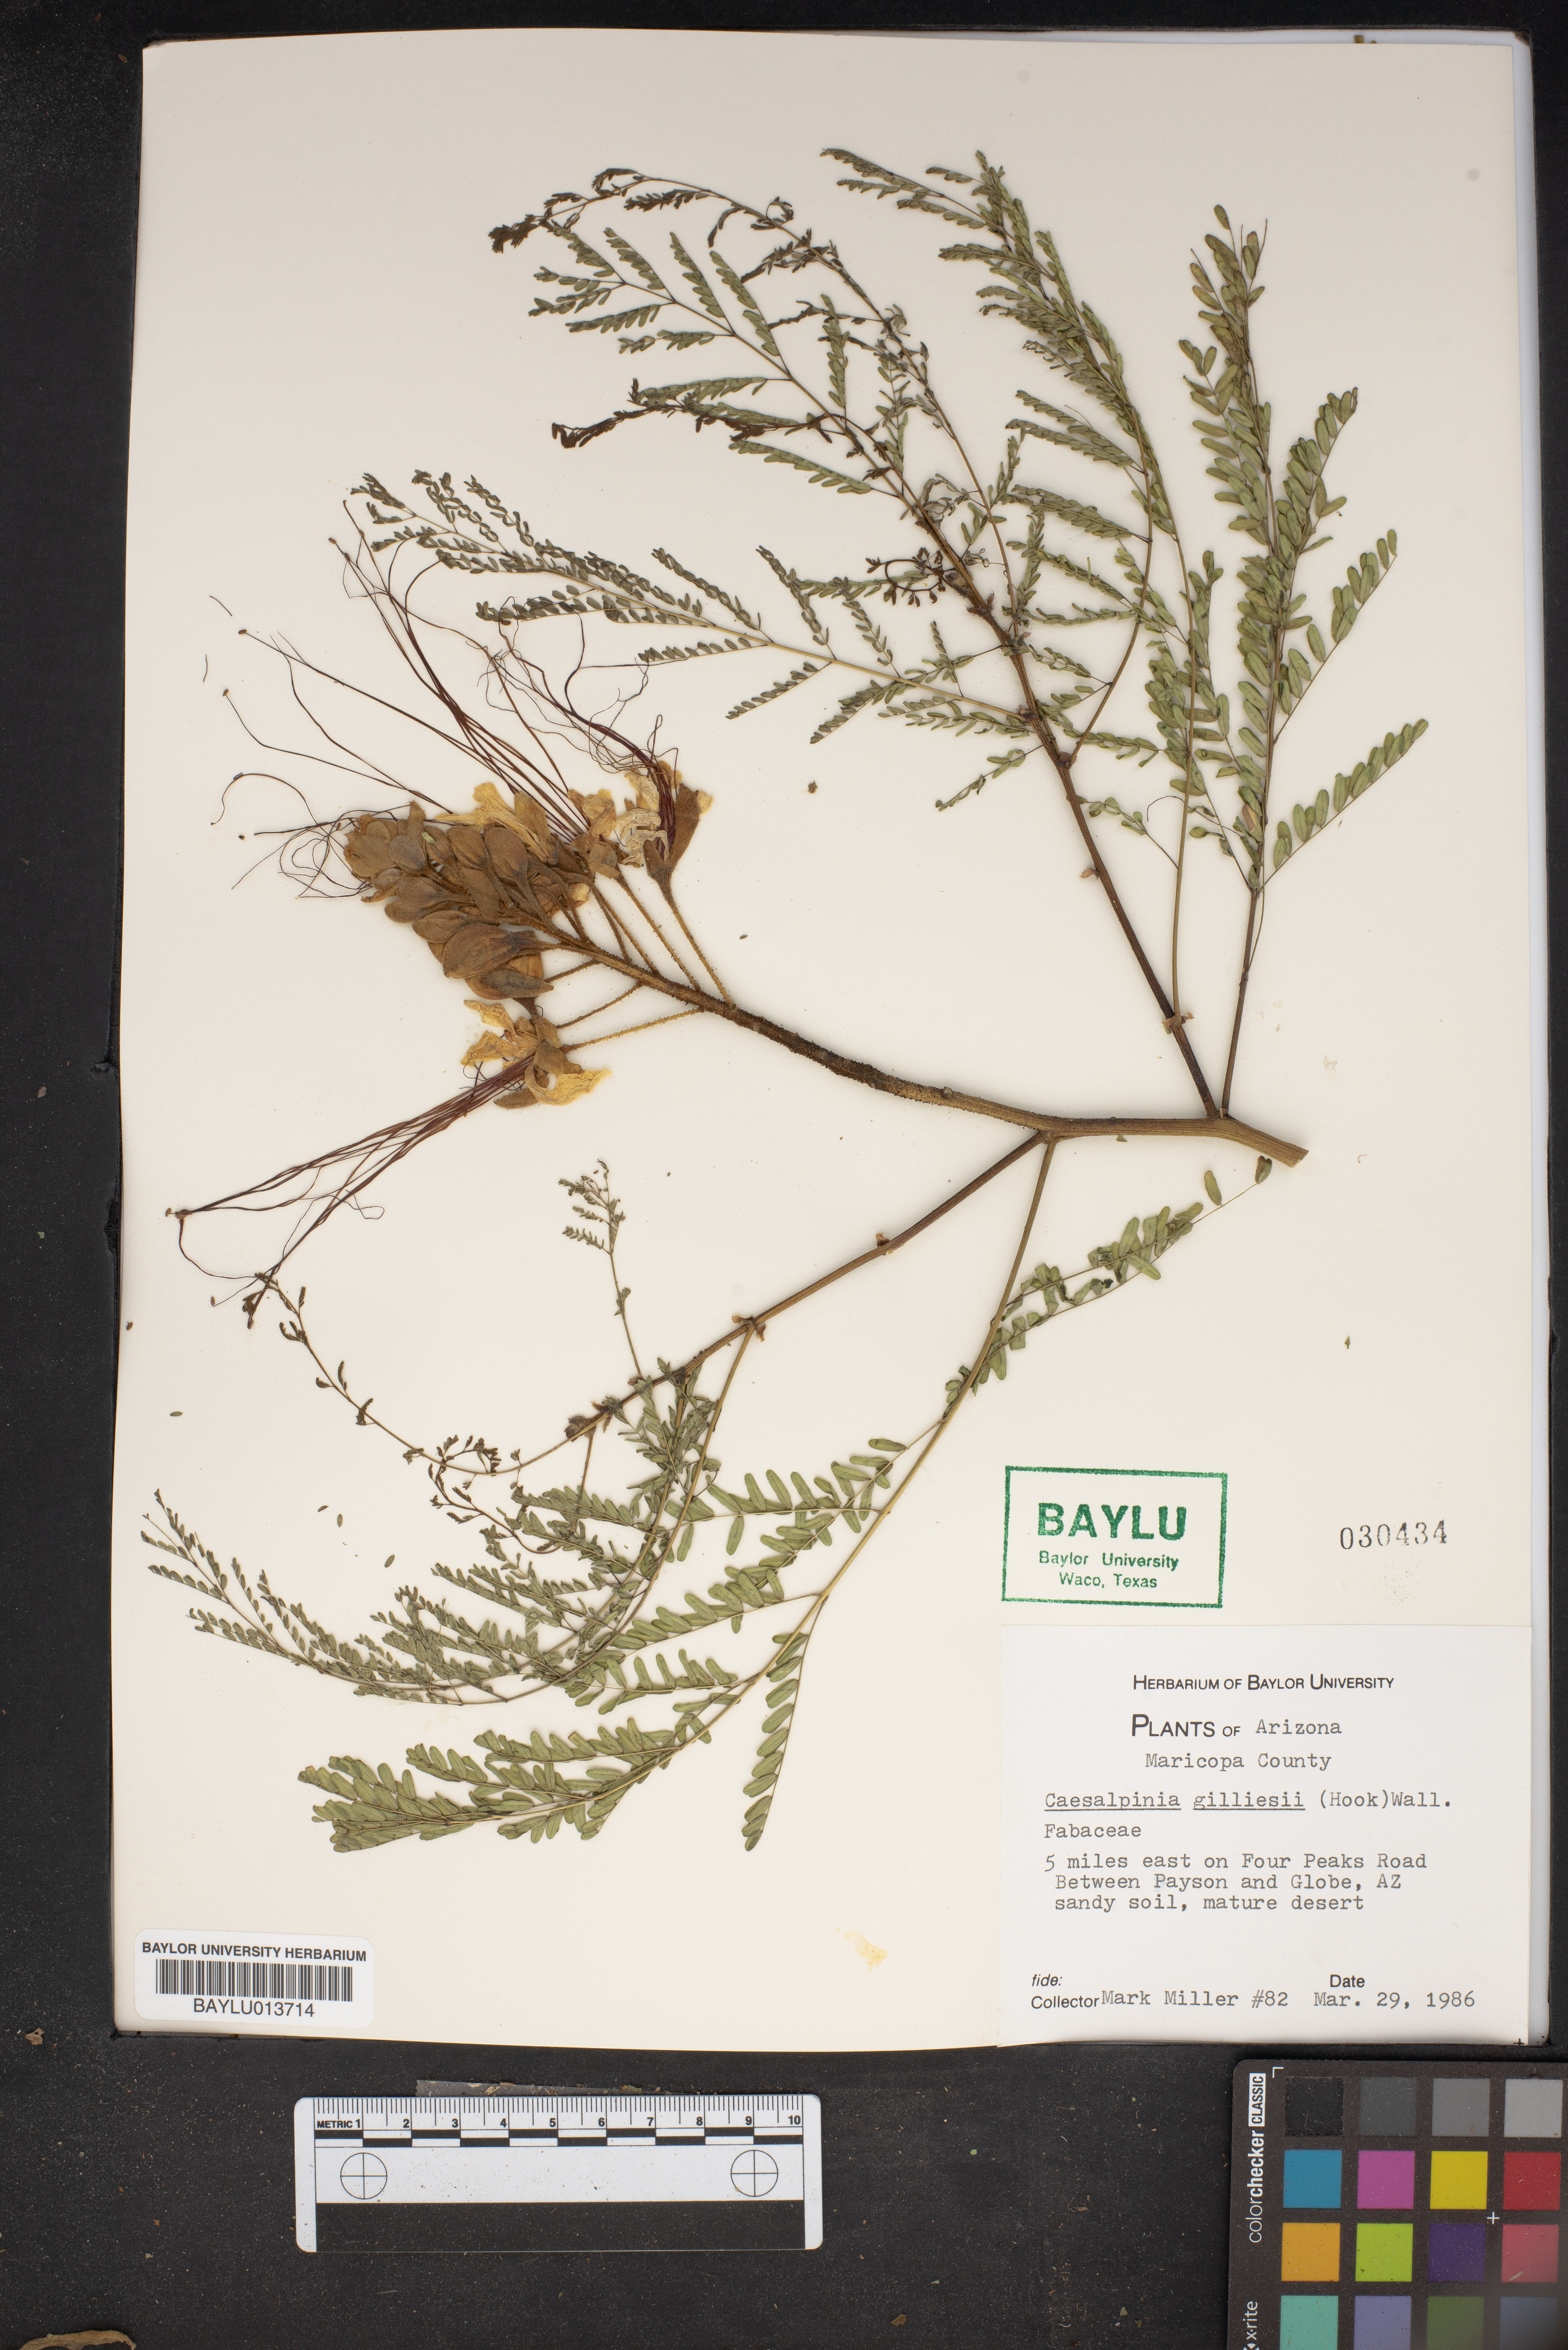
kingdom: Plantae
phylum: Tracheophyta
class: Magnoliopsida
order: Fabales
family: Fabaceae
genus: Erythrostemon
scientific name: Erythrostemon gilliesii
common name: Bird-of-paradise shrub
